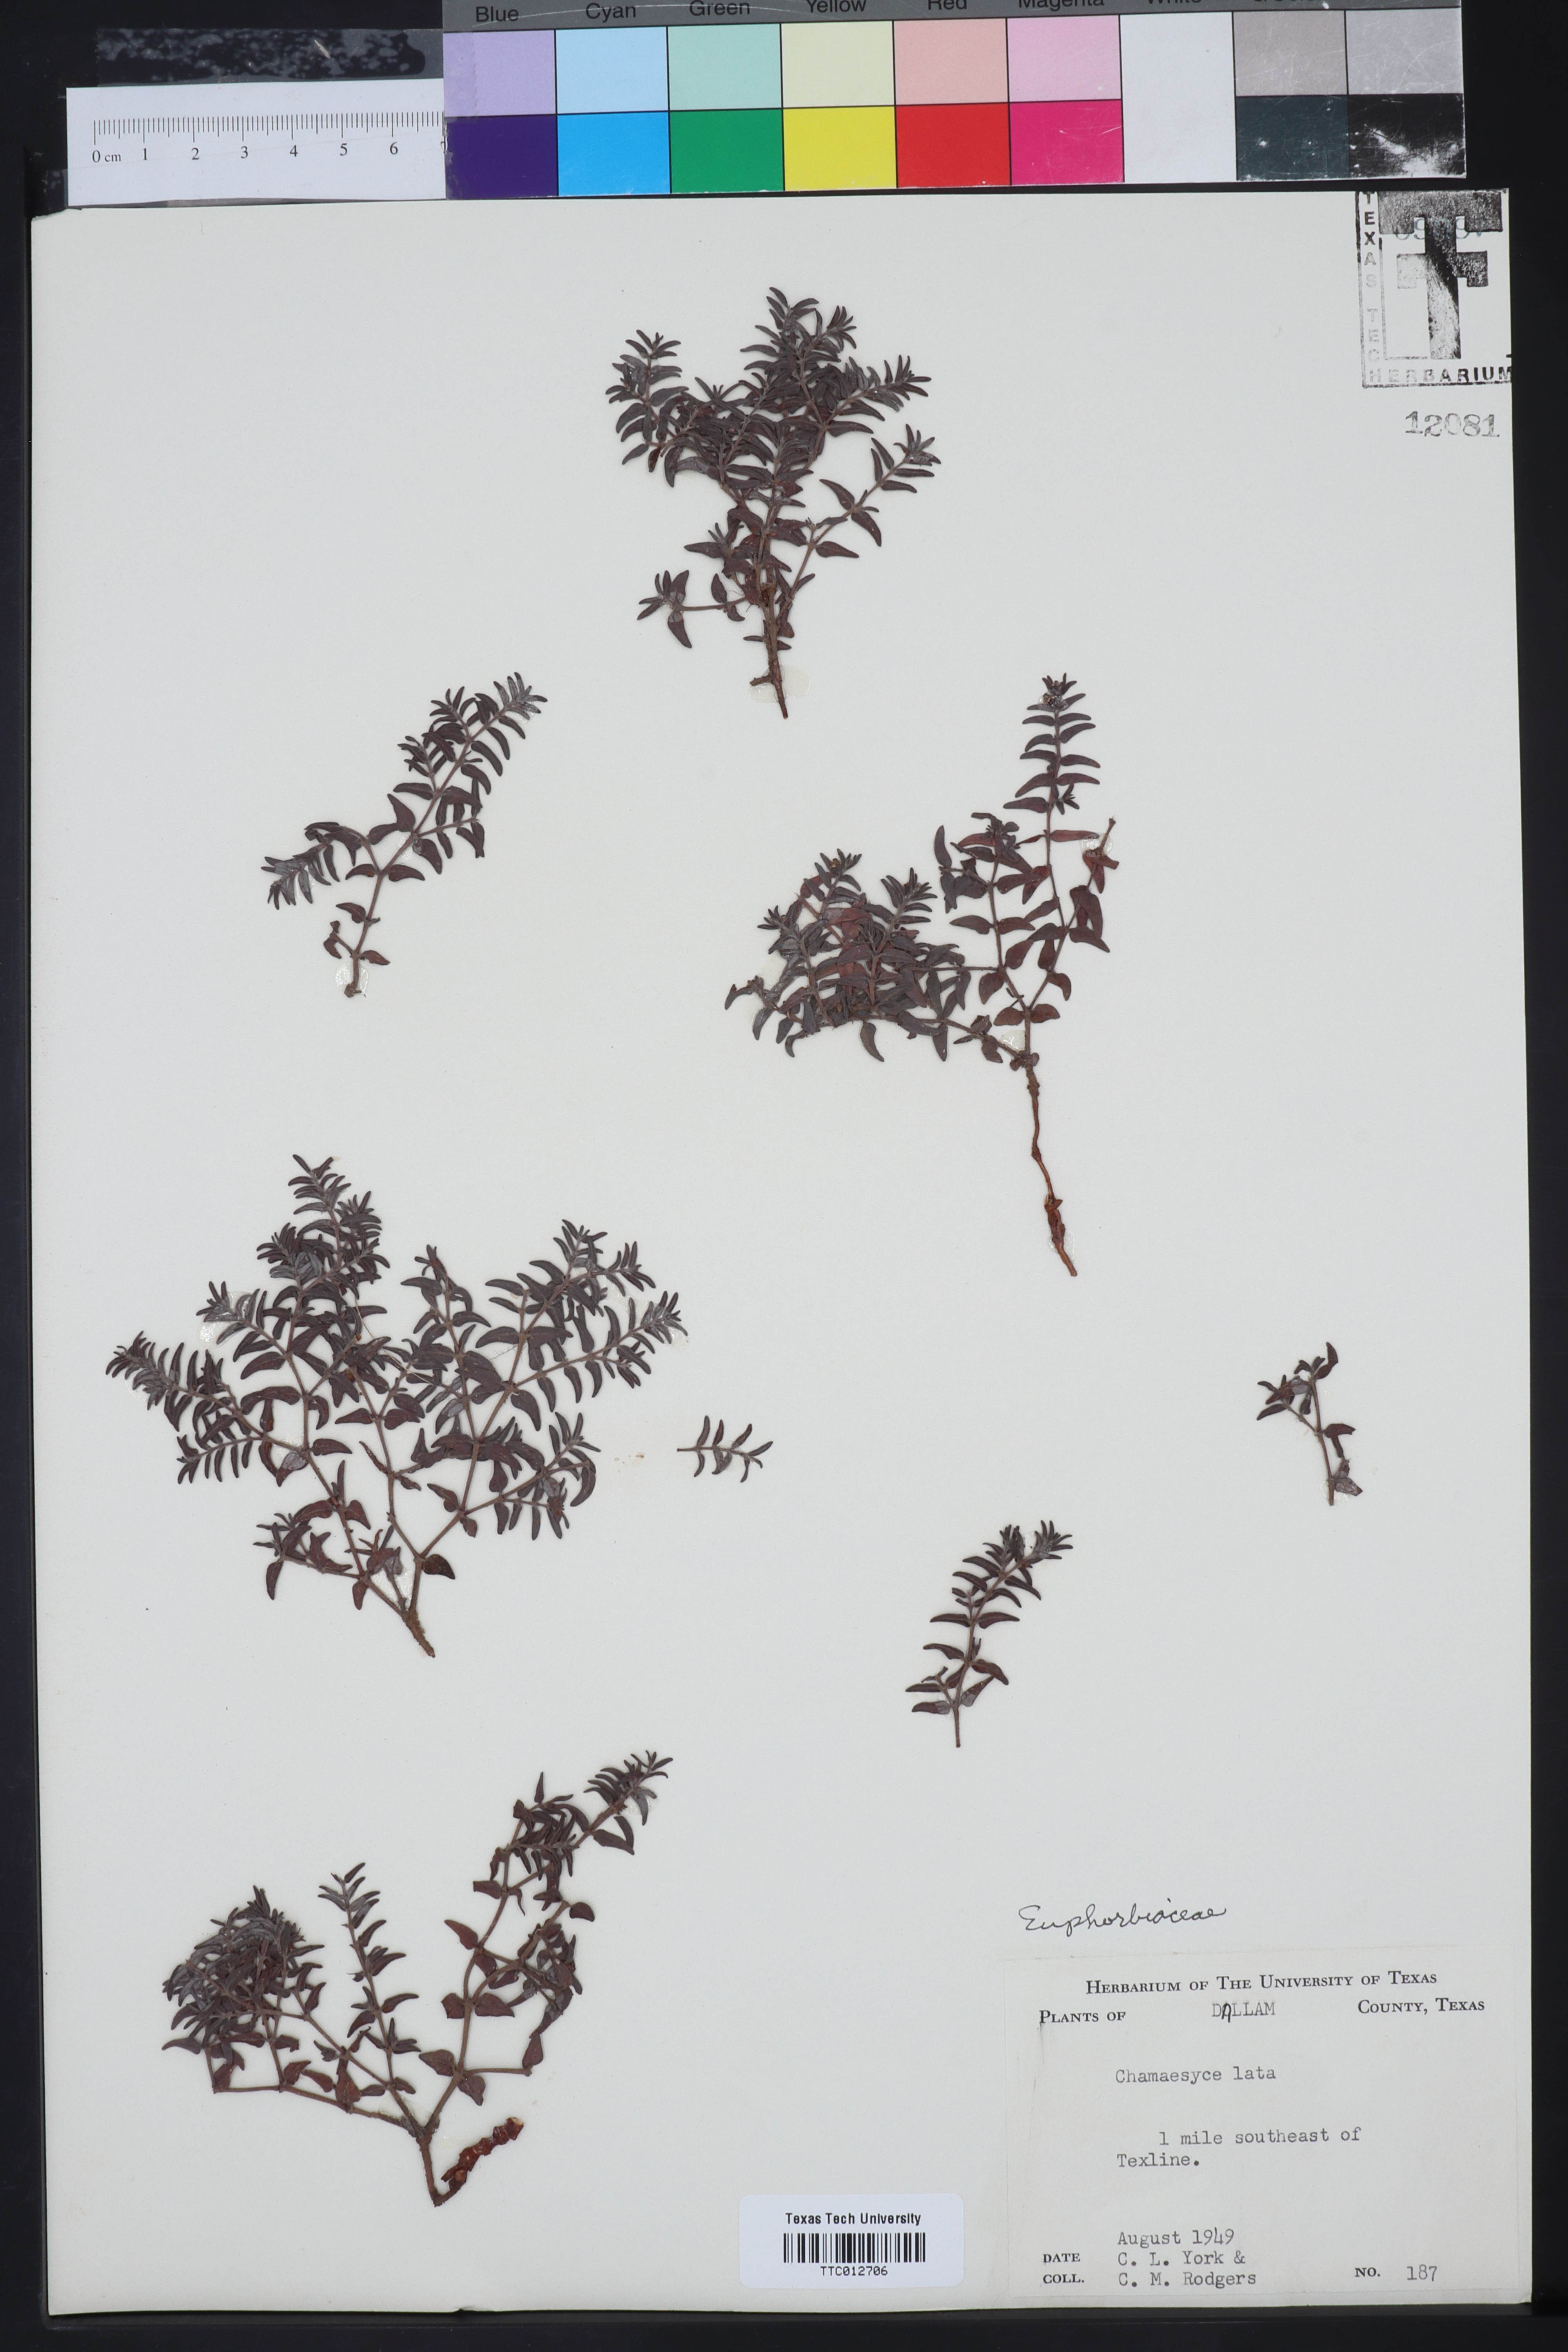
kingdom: Plantae
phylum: Tracheophyta
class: Magnoliopsida
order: Malpighiales
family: Euphorbiaceae
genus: Euphorbia
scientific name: Euphorbia lata
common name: Hoary euphorbia
